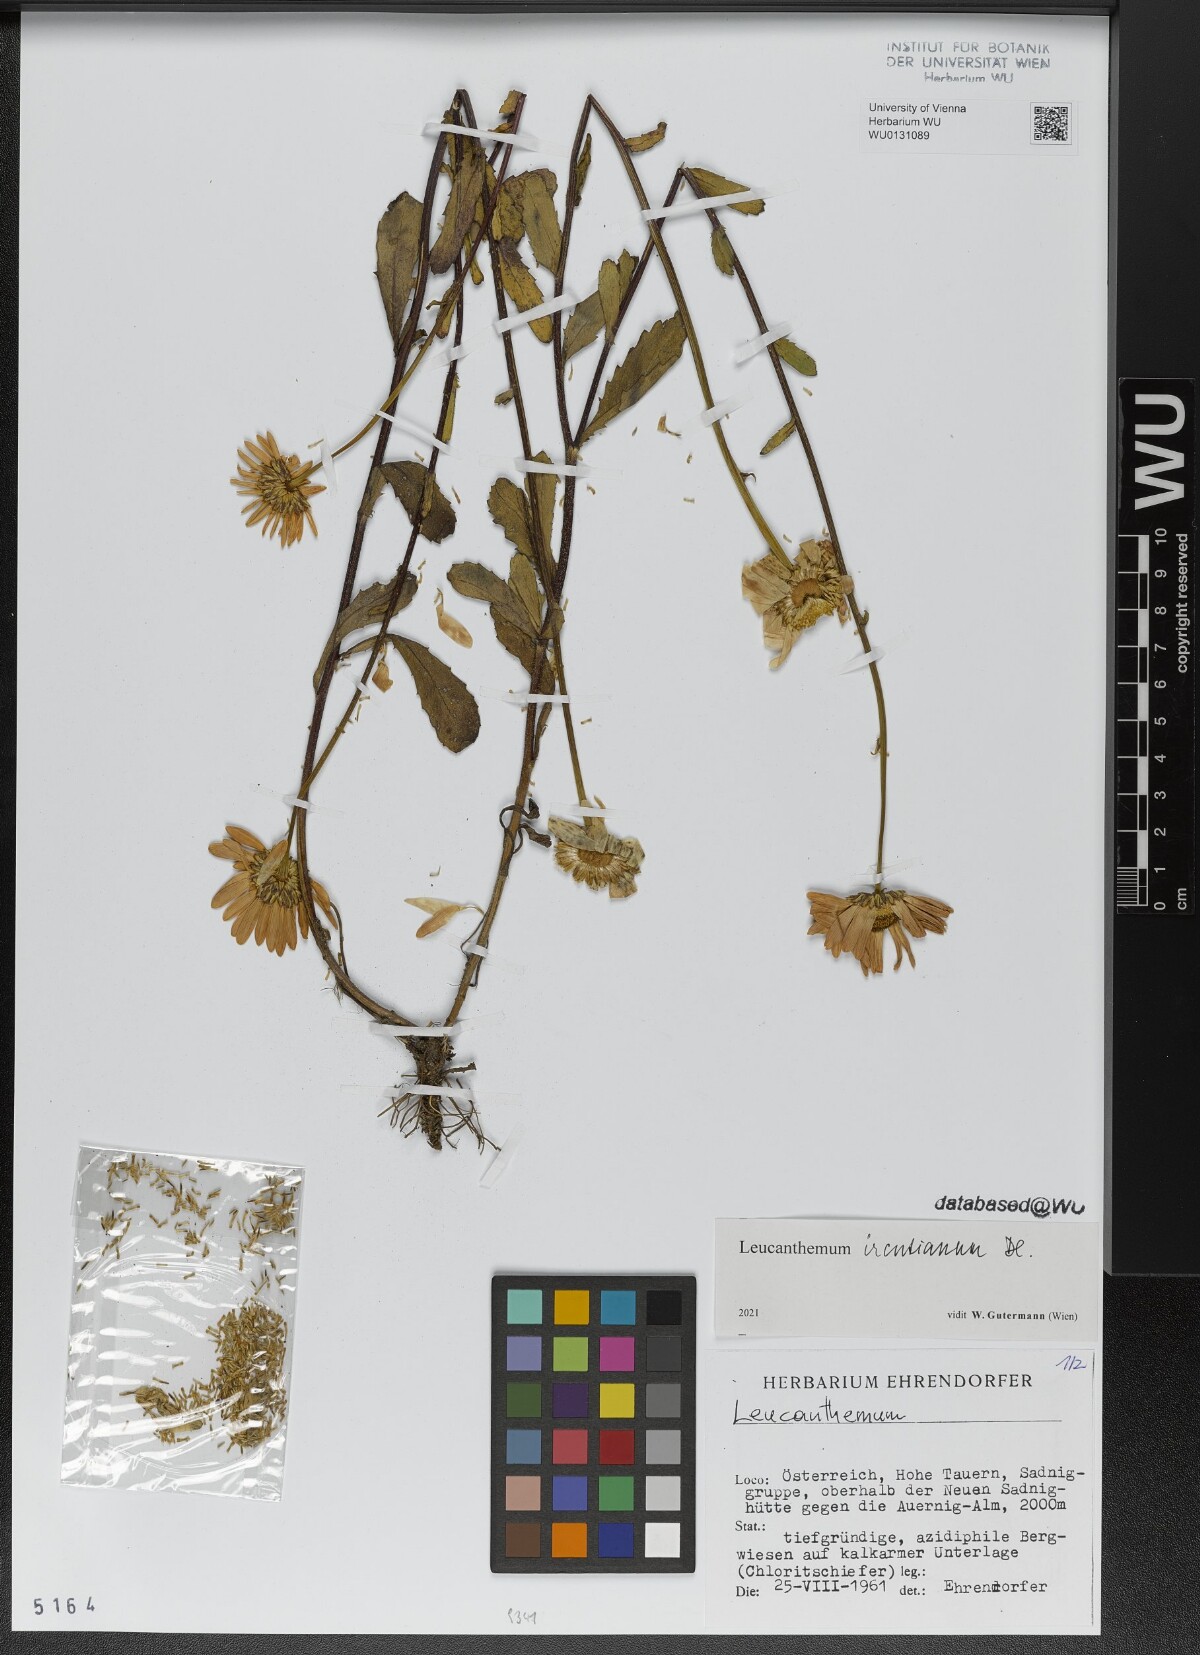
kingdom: Plantae
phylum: Tracheophyta
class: Magnoliopsida
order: Asterales
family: Asteraceae
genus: Leucanthemum
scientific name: Leucanthemum ircutianum
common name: Daisy
